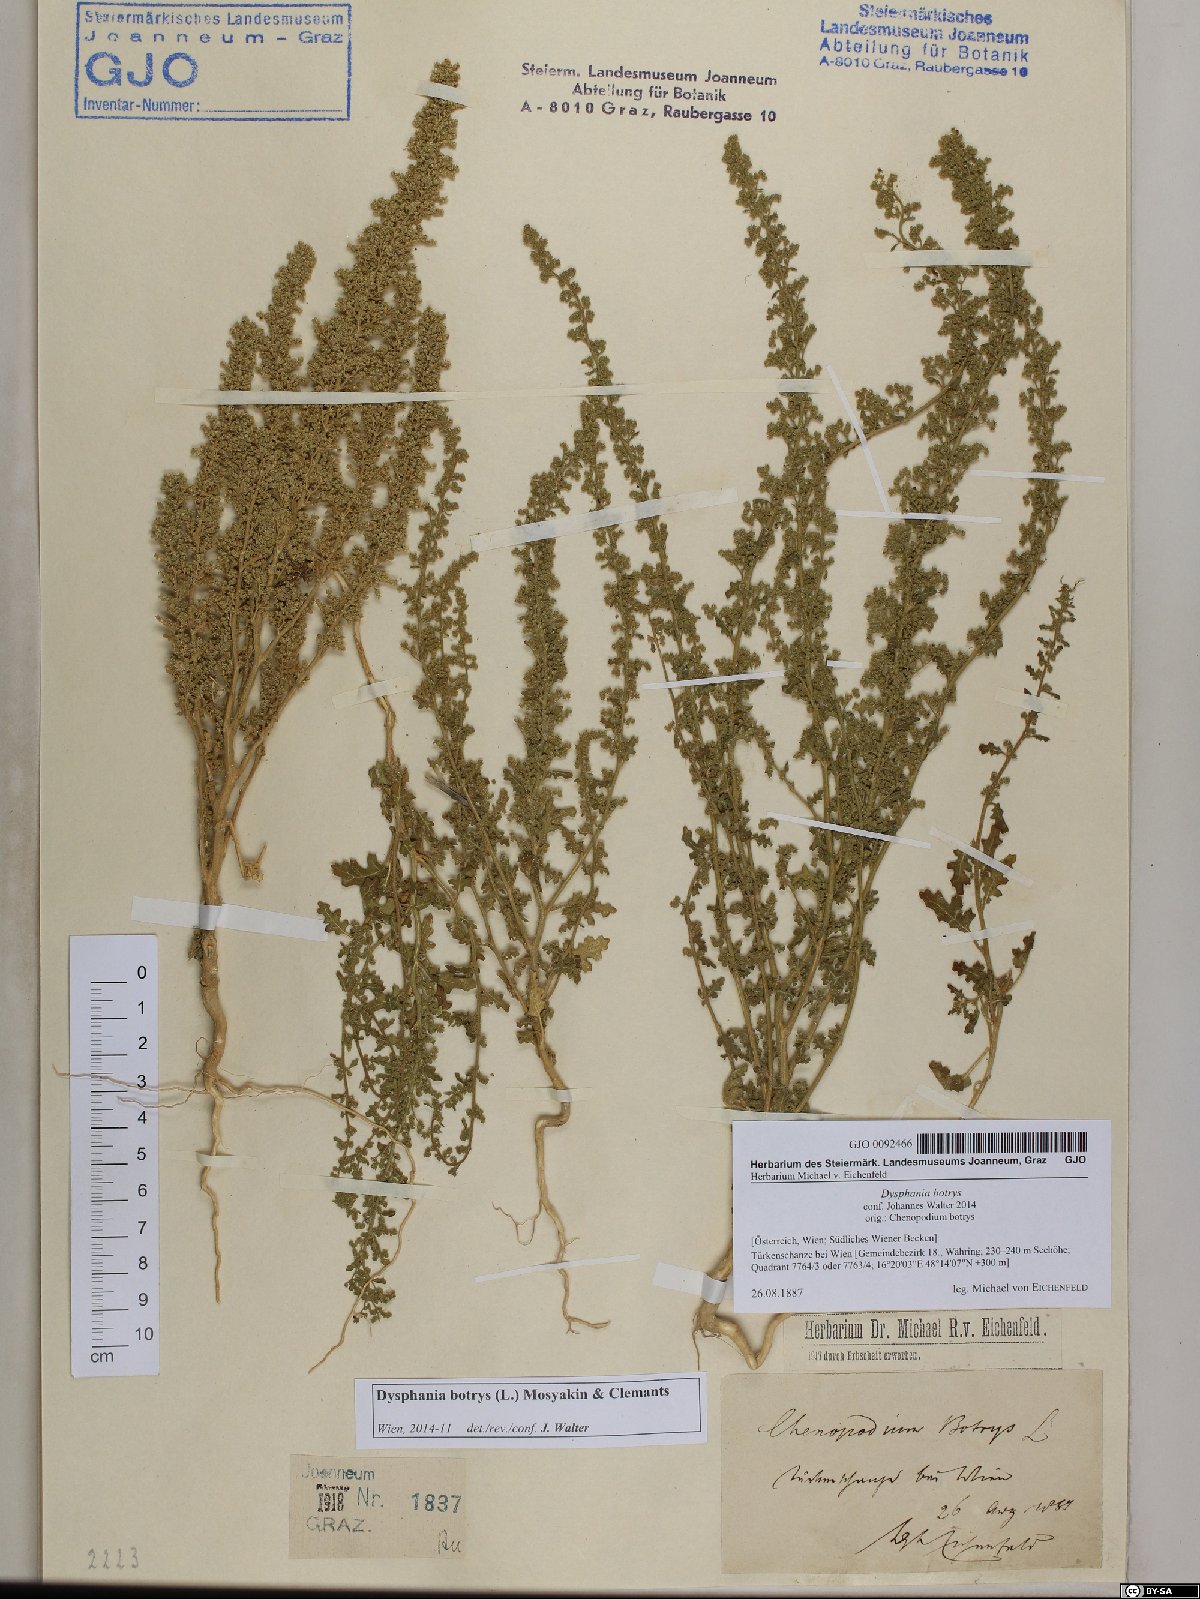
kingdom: Plantae
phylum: Tracheophyta
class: Magnoliopsida
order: Caryophyllales
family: Amaranthaceae
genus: Dysphania
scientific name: Dysphania botrys
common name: Feather-geranium
